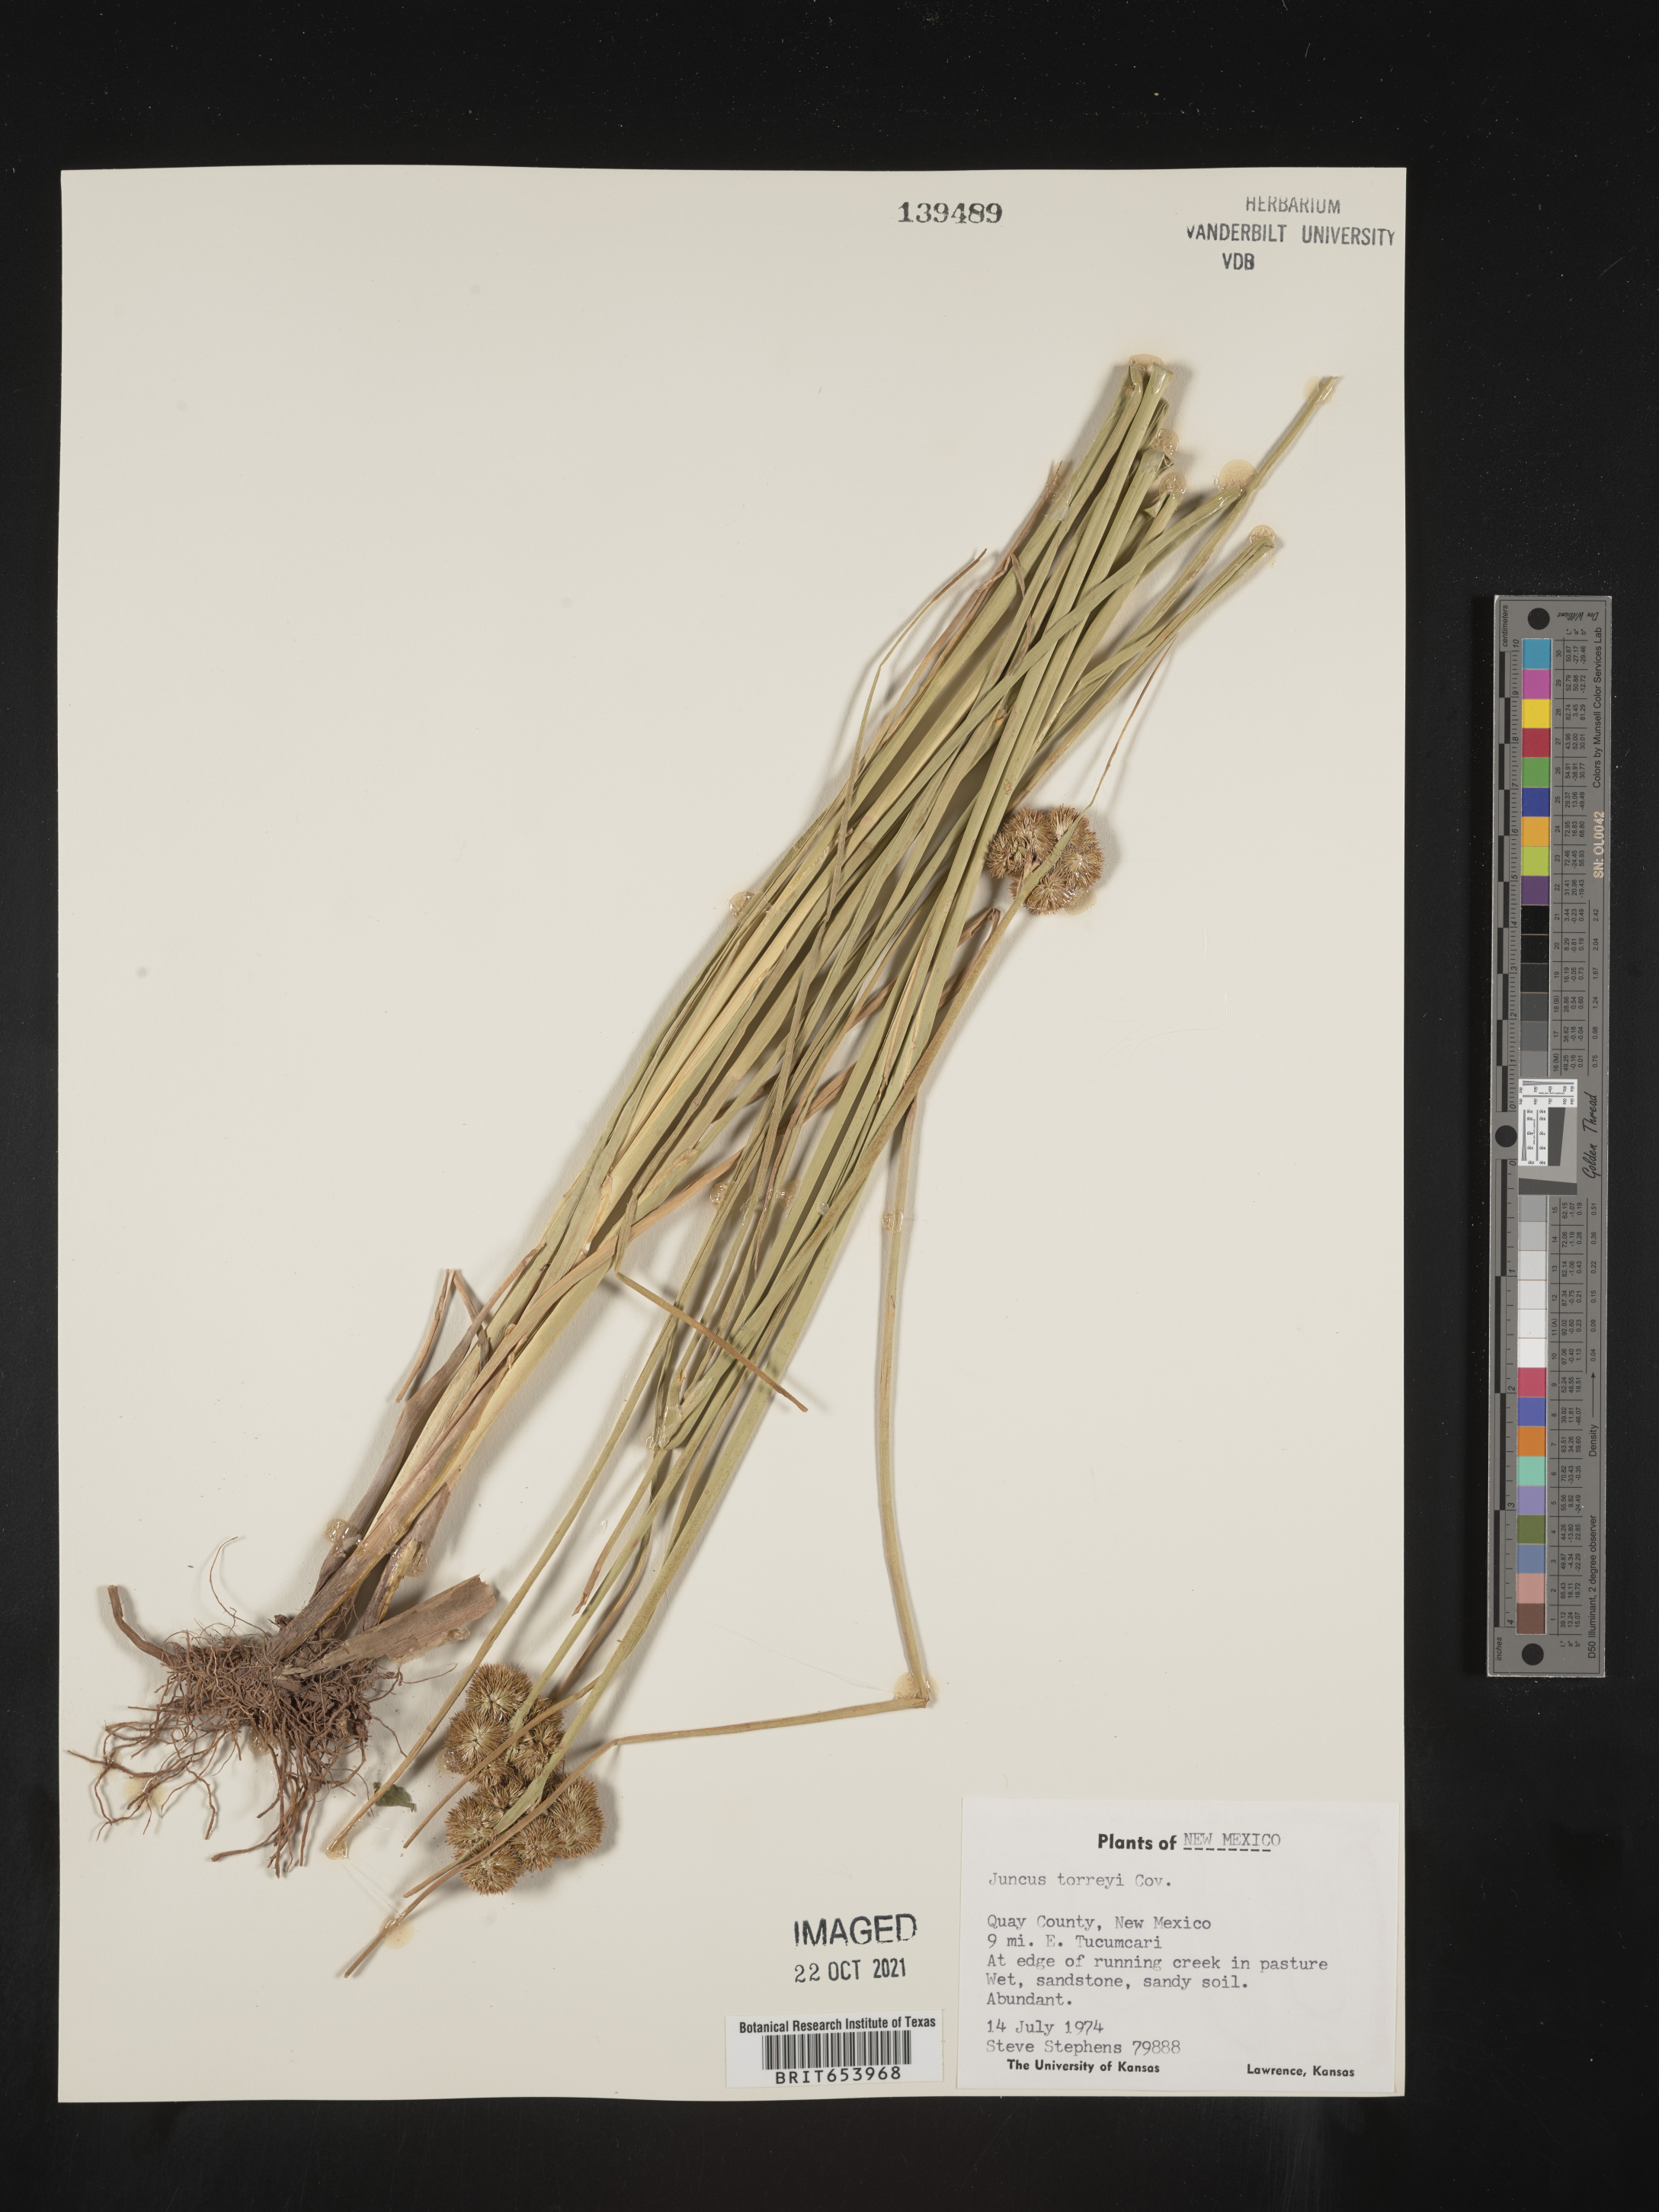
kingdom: Plantae
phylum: Tracheophyta
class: Liliopsida
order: Poales
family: Juncaceae
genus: Juncus
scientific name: Juncus torreyi
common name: Torrey's rush
